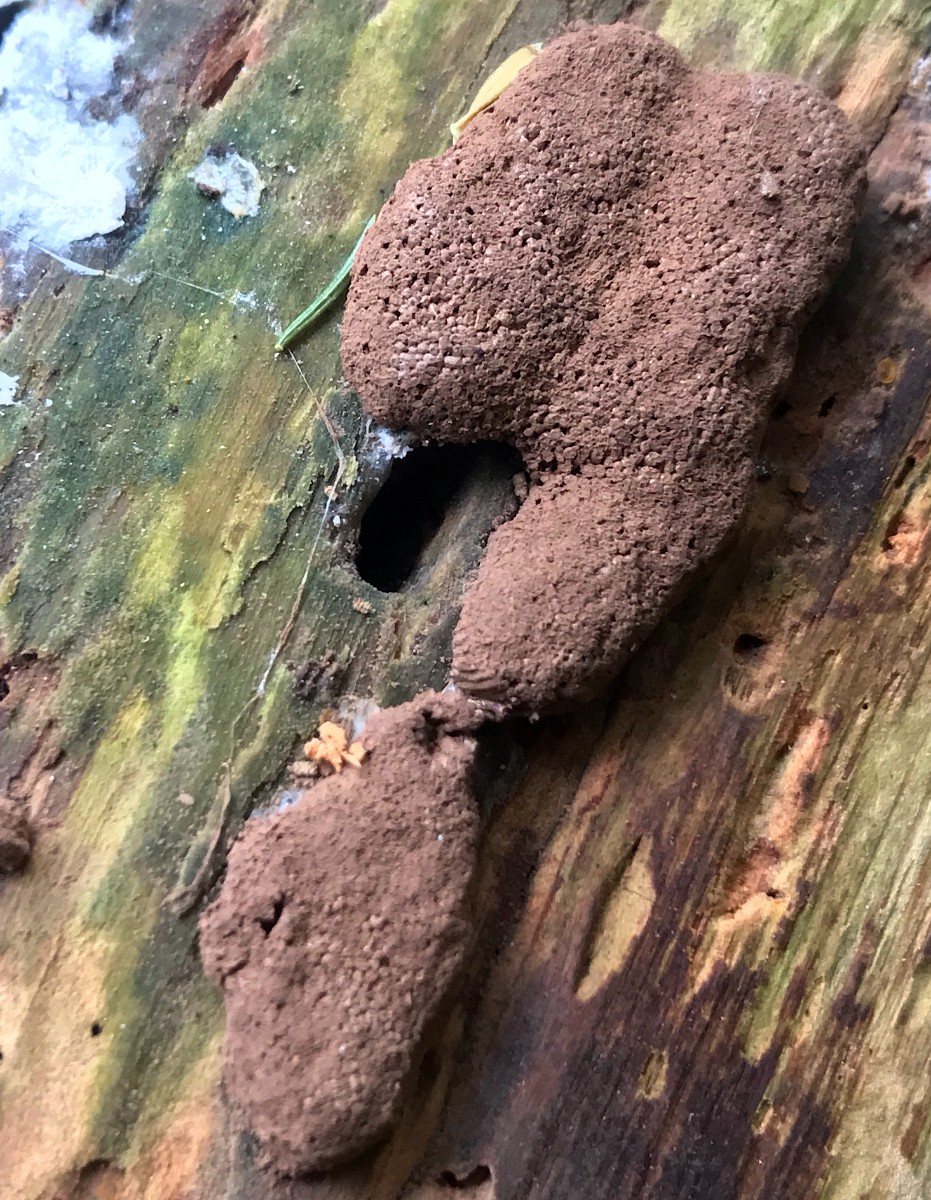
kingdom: Protozoa
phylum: Mycetozoa
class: Myxomycetes
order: Cribrariales
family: Tubiferaceae
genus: Tubifera
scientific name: Tubifera ferruginosa
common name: kanel-støvrør
